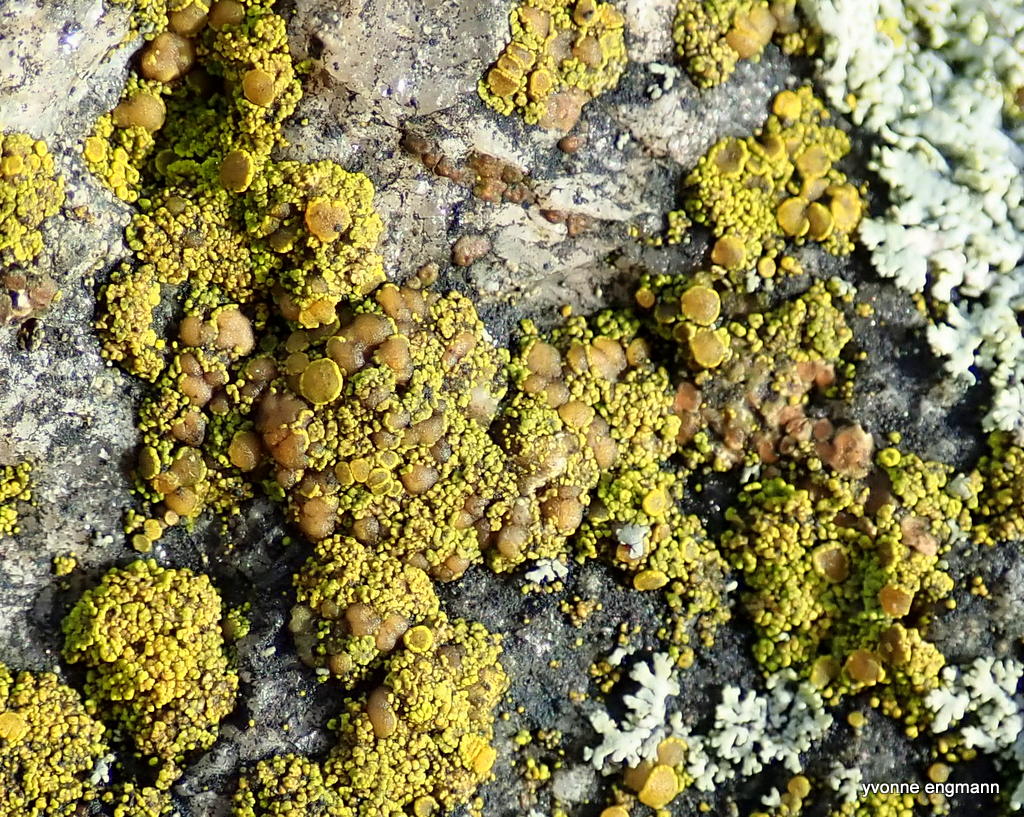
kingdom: Fungi
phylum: Ascomycota
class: Candelariomycetes
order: Candelariales
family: Candelariaceae
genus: Candelariella
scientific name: Candelariella vitellina
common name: almindelig æggeblommelav
